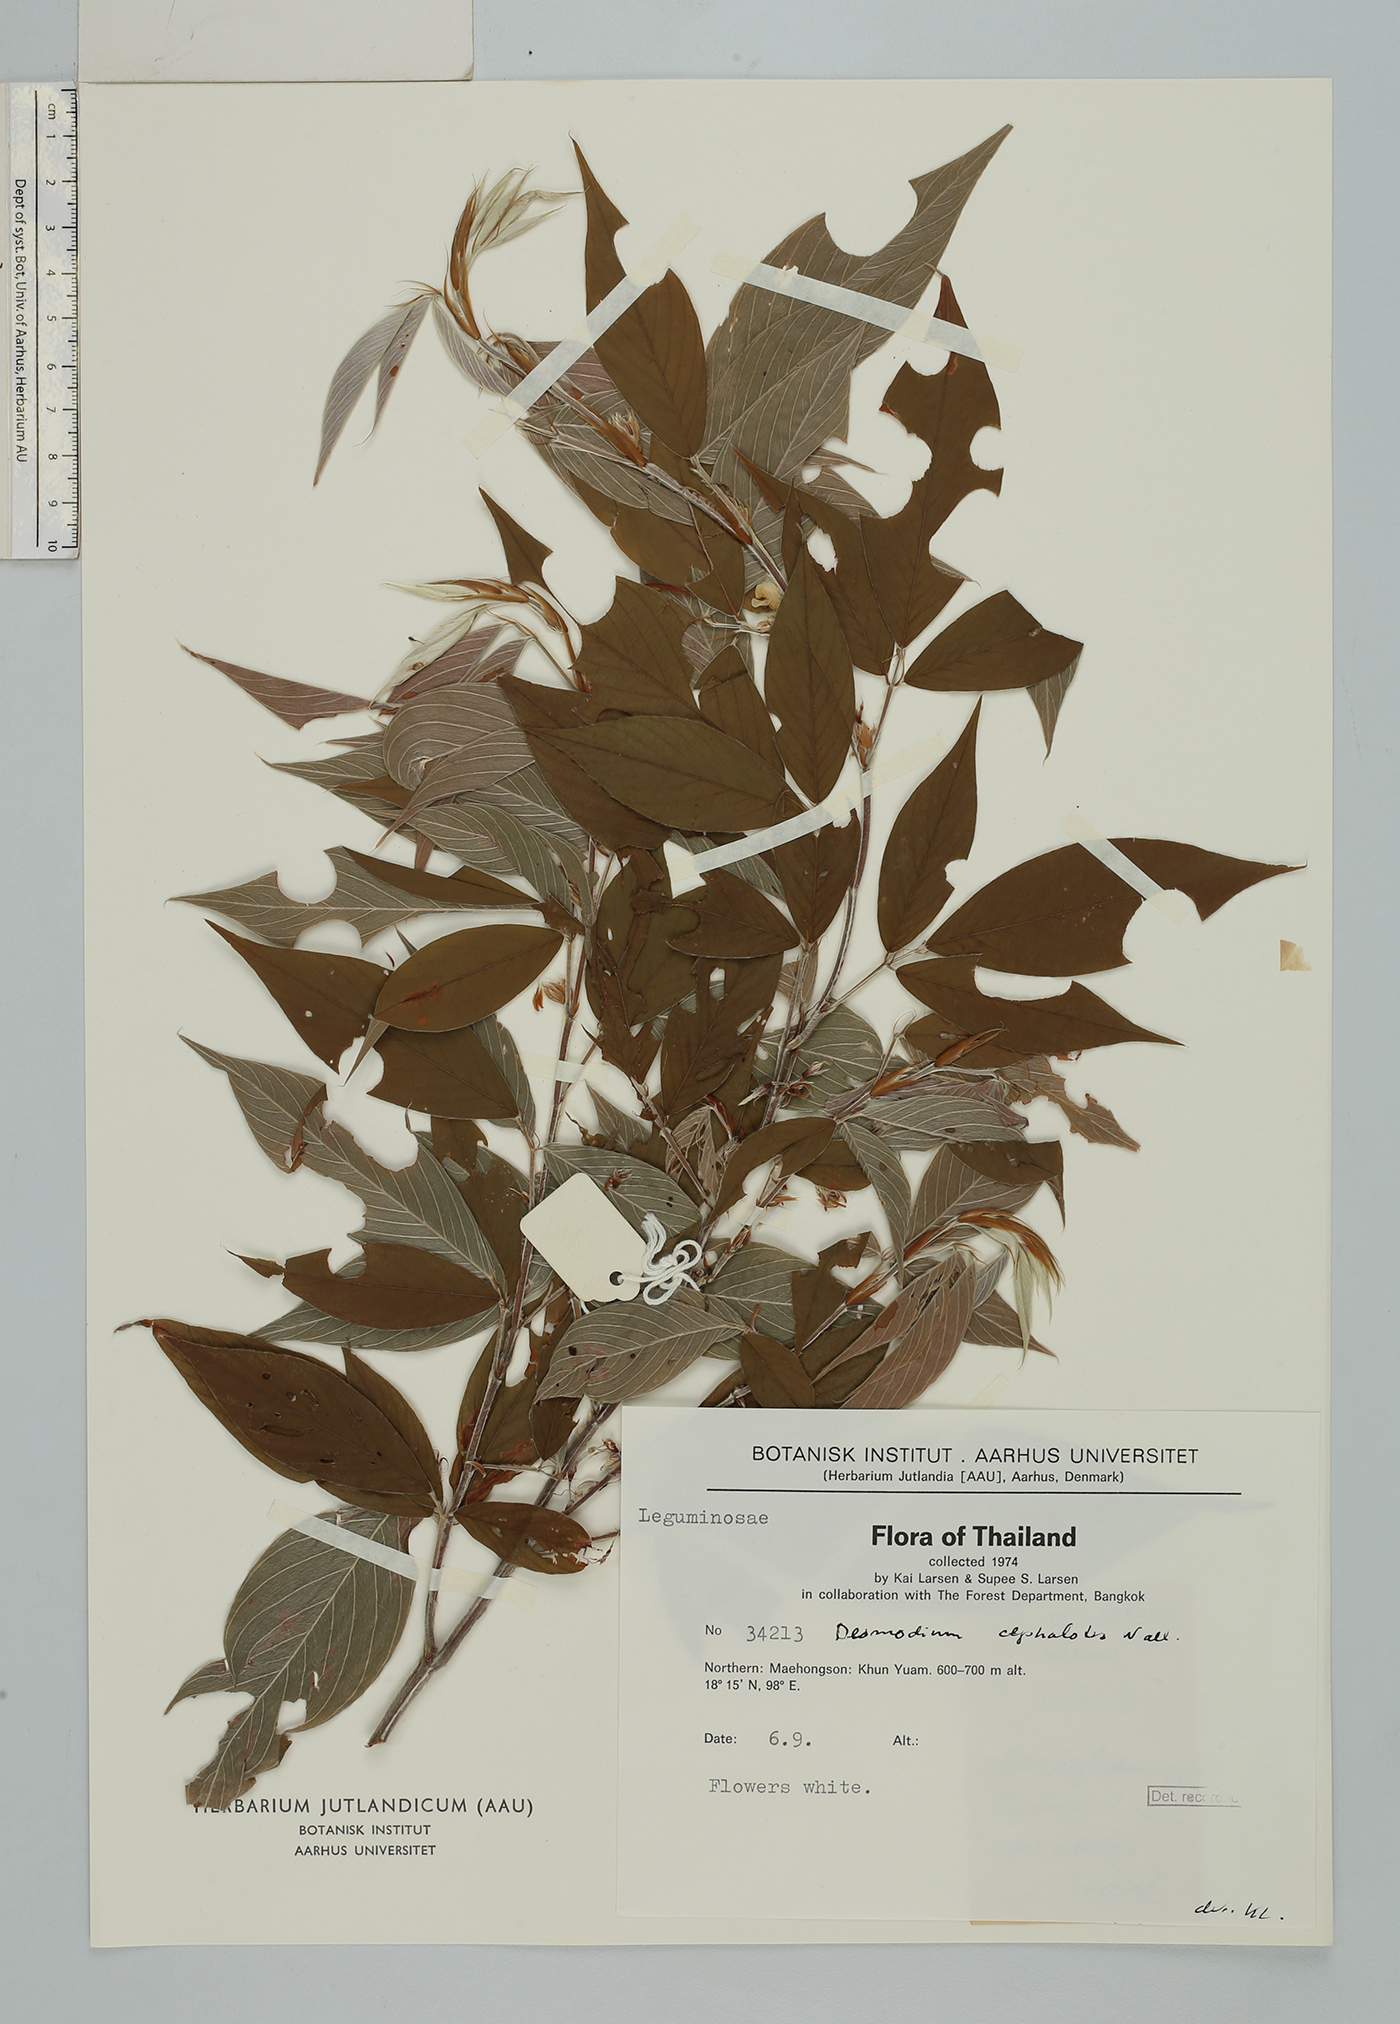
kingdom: Plantae
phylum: Tracheophyta
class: Magnoliopsida
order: Fabales
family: Fabaceae
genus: Dendrolobium
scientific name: Dendrolobium triangulare
